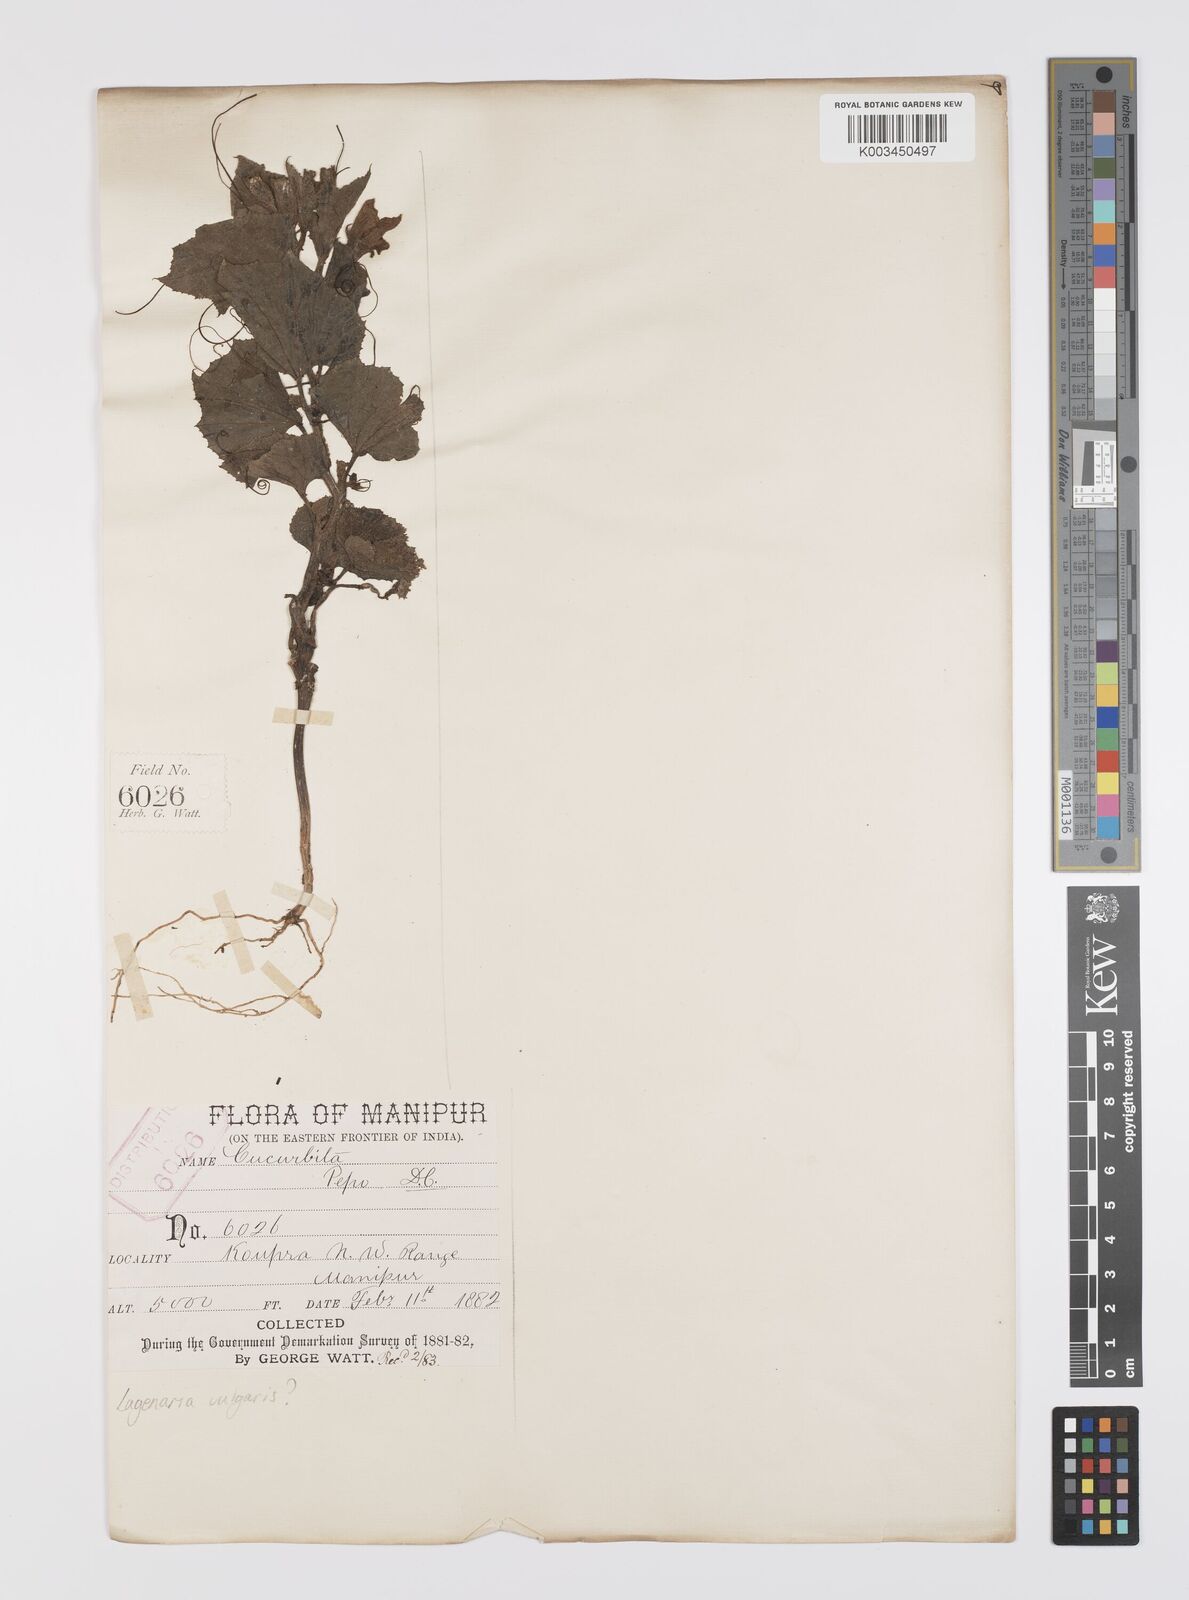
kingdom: Plantae
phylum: Tracheophyta
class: Magnoliopsida
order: Cucurbitales
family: Cucurbitaceae
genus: Lagenaria
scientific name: Lagenaria siceraria
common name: Bottle gourd
